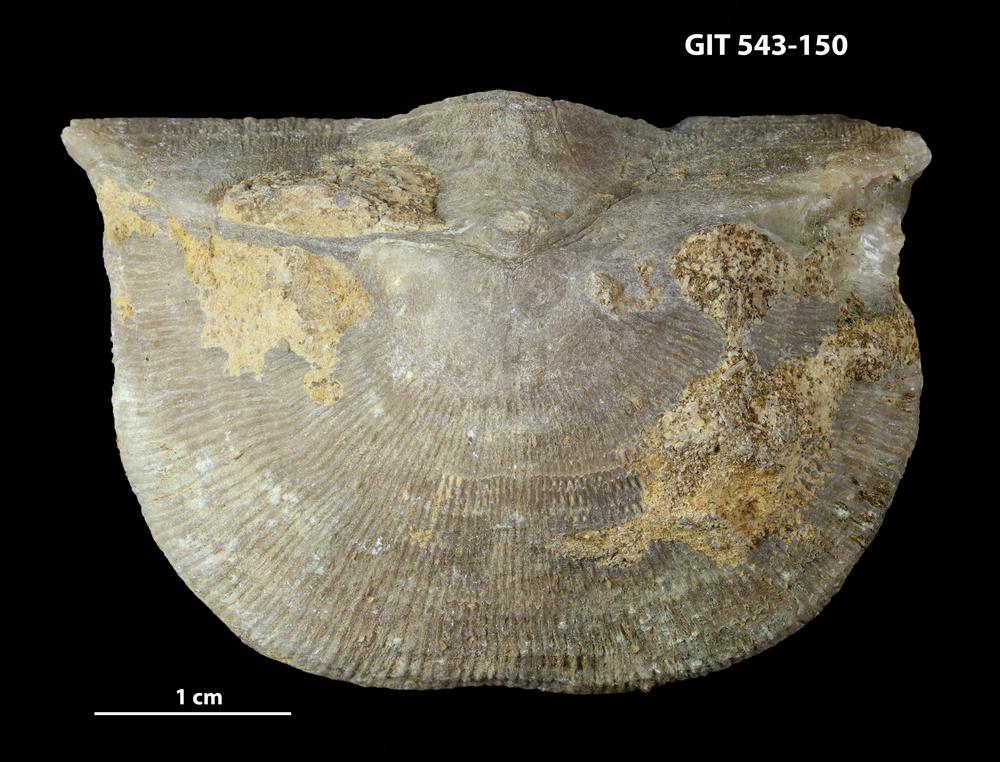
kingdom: Animalia
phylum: Brachiopoda
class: Rhynchonellata
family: Clitambonitidae
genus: Clinambon
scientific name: Clinambon anomalus
